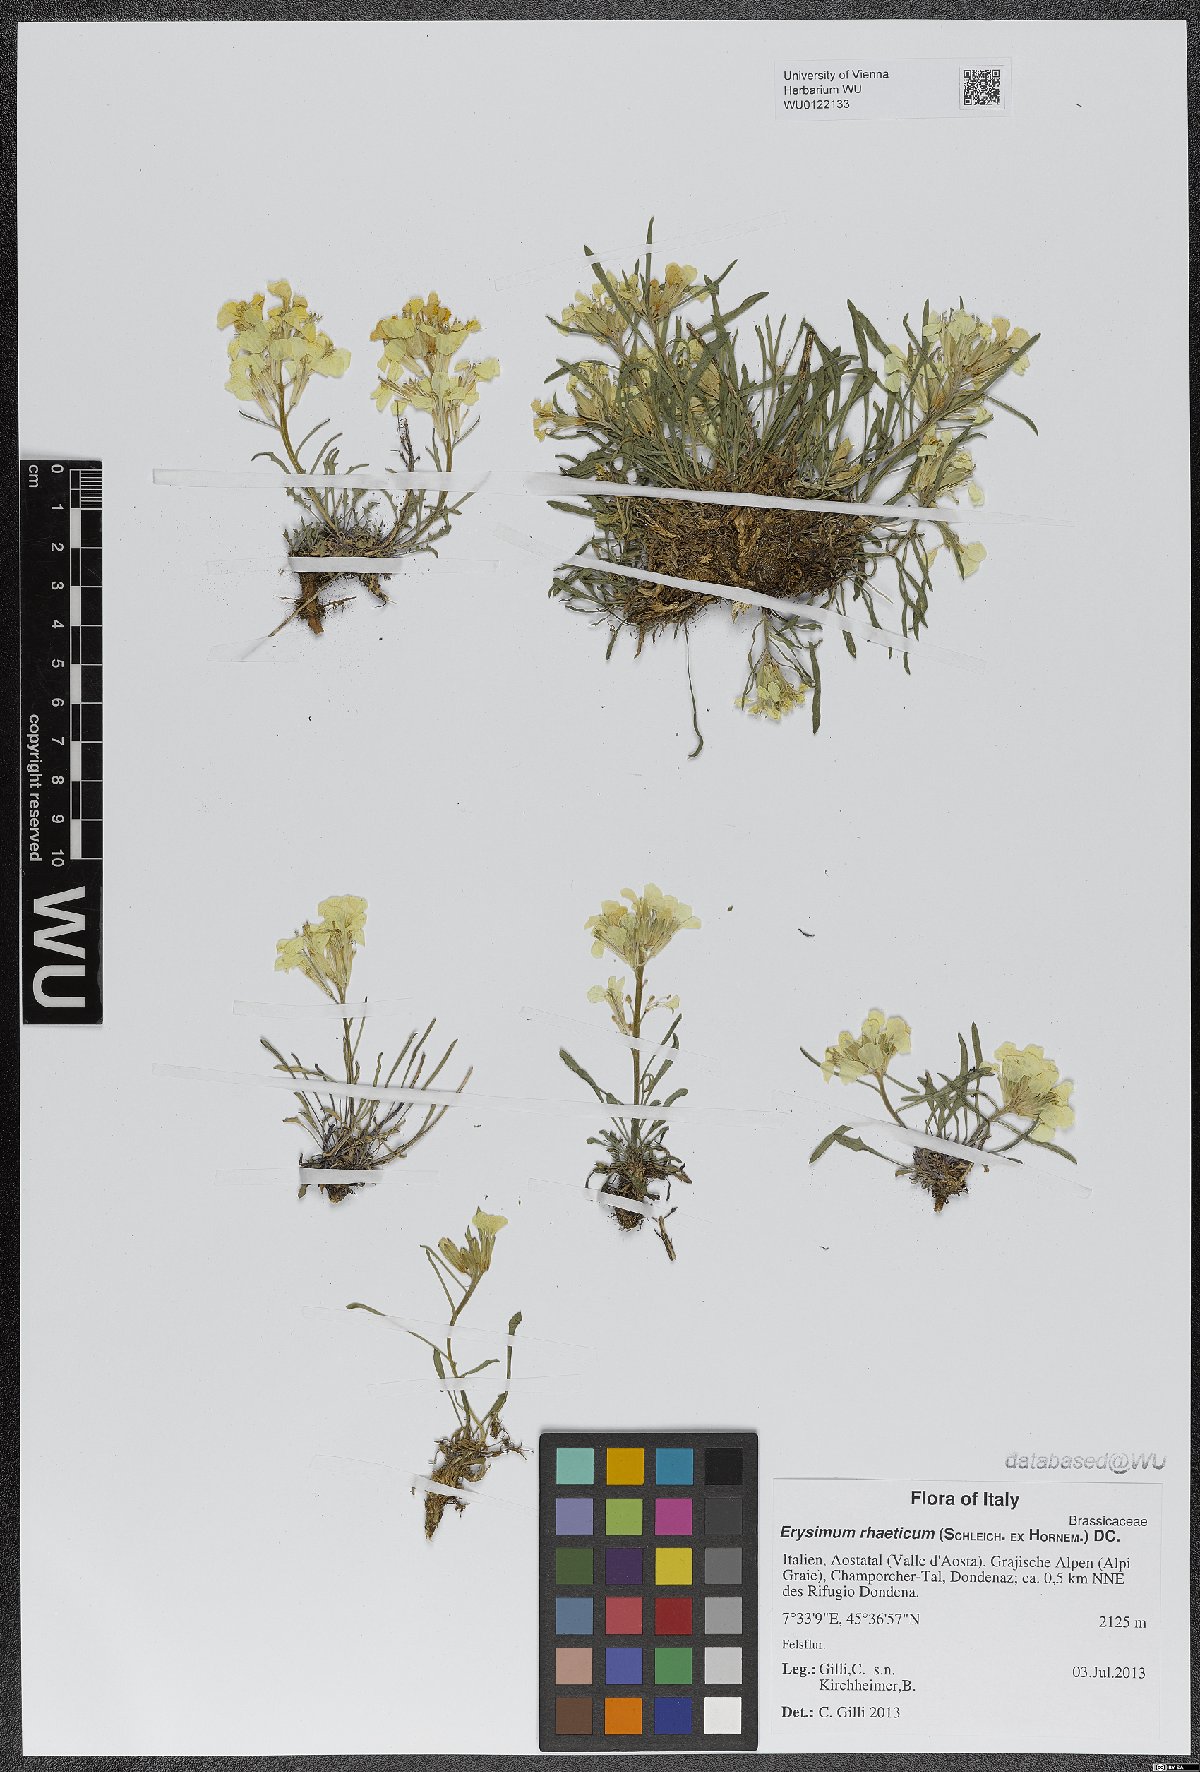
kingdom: Plantae
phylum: Tracheophyta
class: Magnoliopsida
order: Brassicales
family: Brassicaceae
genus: Erysimum
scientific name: Erysimum rhaeticum
